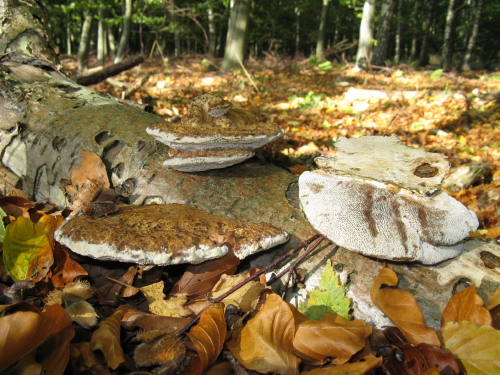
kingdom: Fungi
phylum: Basidiomycota
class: Agaricomycetes
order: Polyporales
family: Polyporaceae
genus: Daedaleopsis
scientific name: Daedaleopsis confragosa
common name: rødmende læderporesvamp
